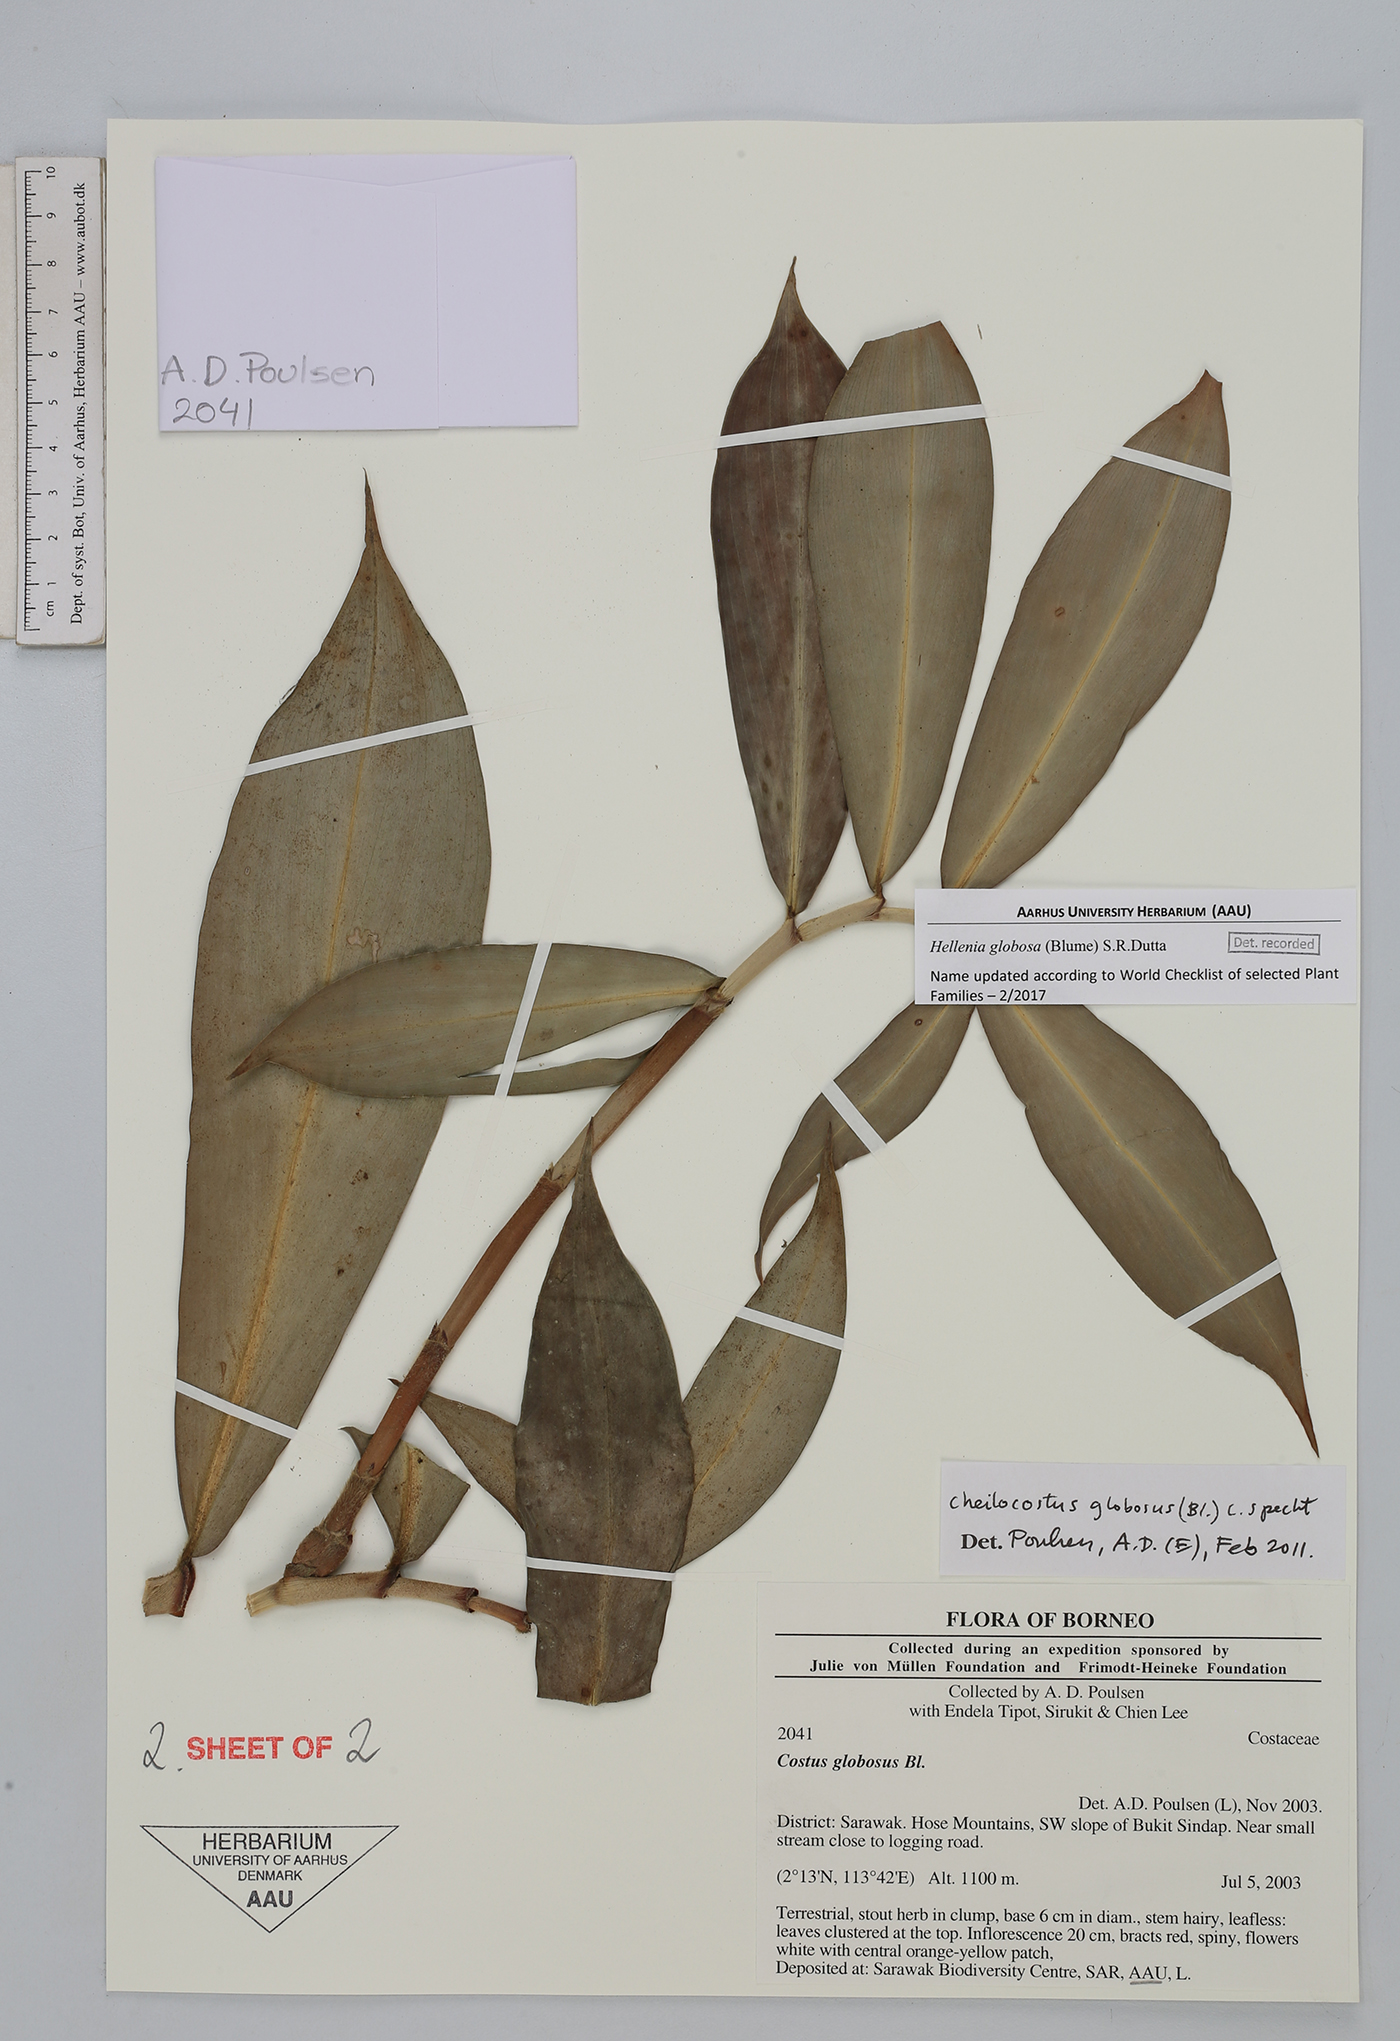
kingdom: Plantae
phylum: Tracheophyta
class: Liliopsida
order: Zingiberales
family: Costaceae
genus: Hellenia
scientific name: Hellenia globosa
